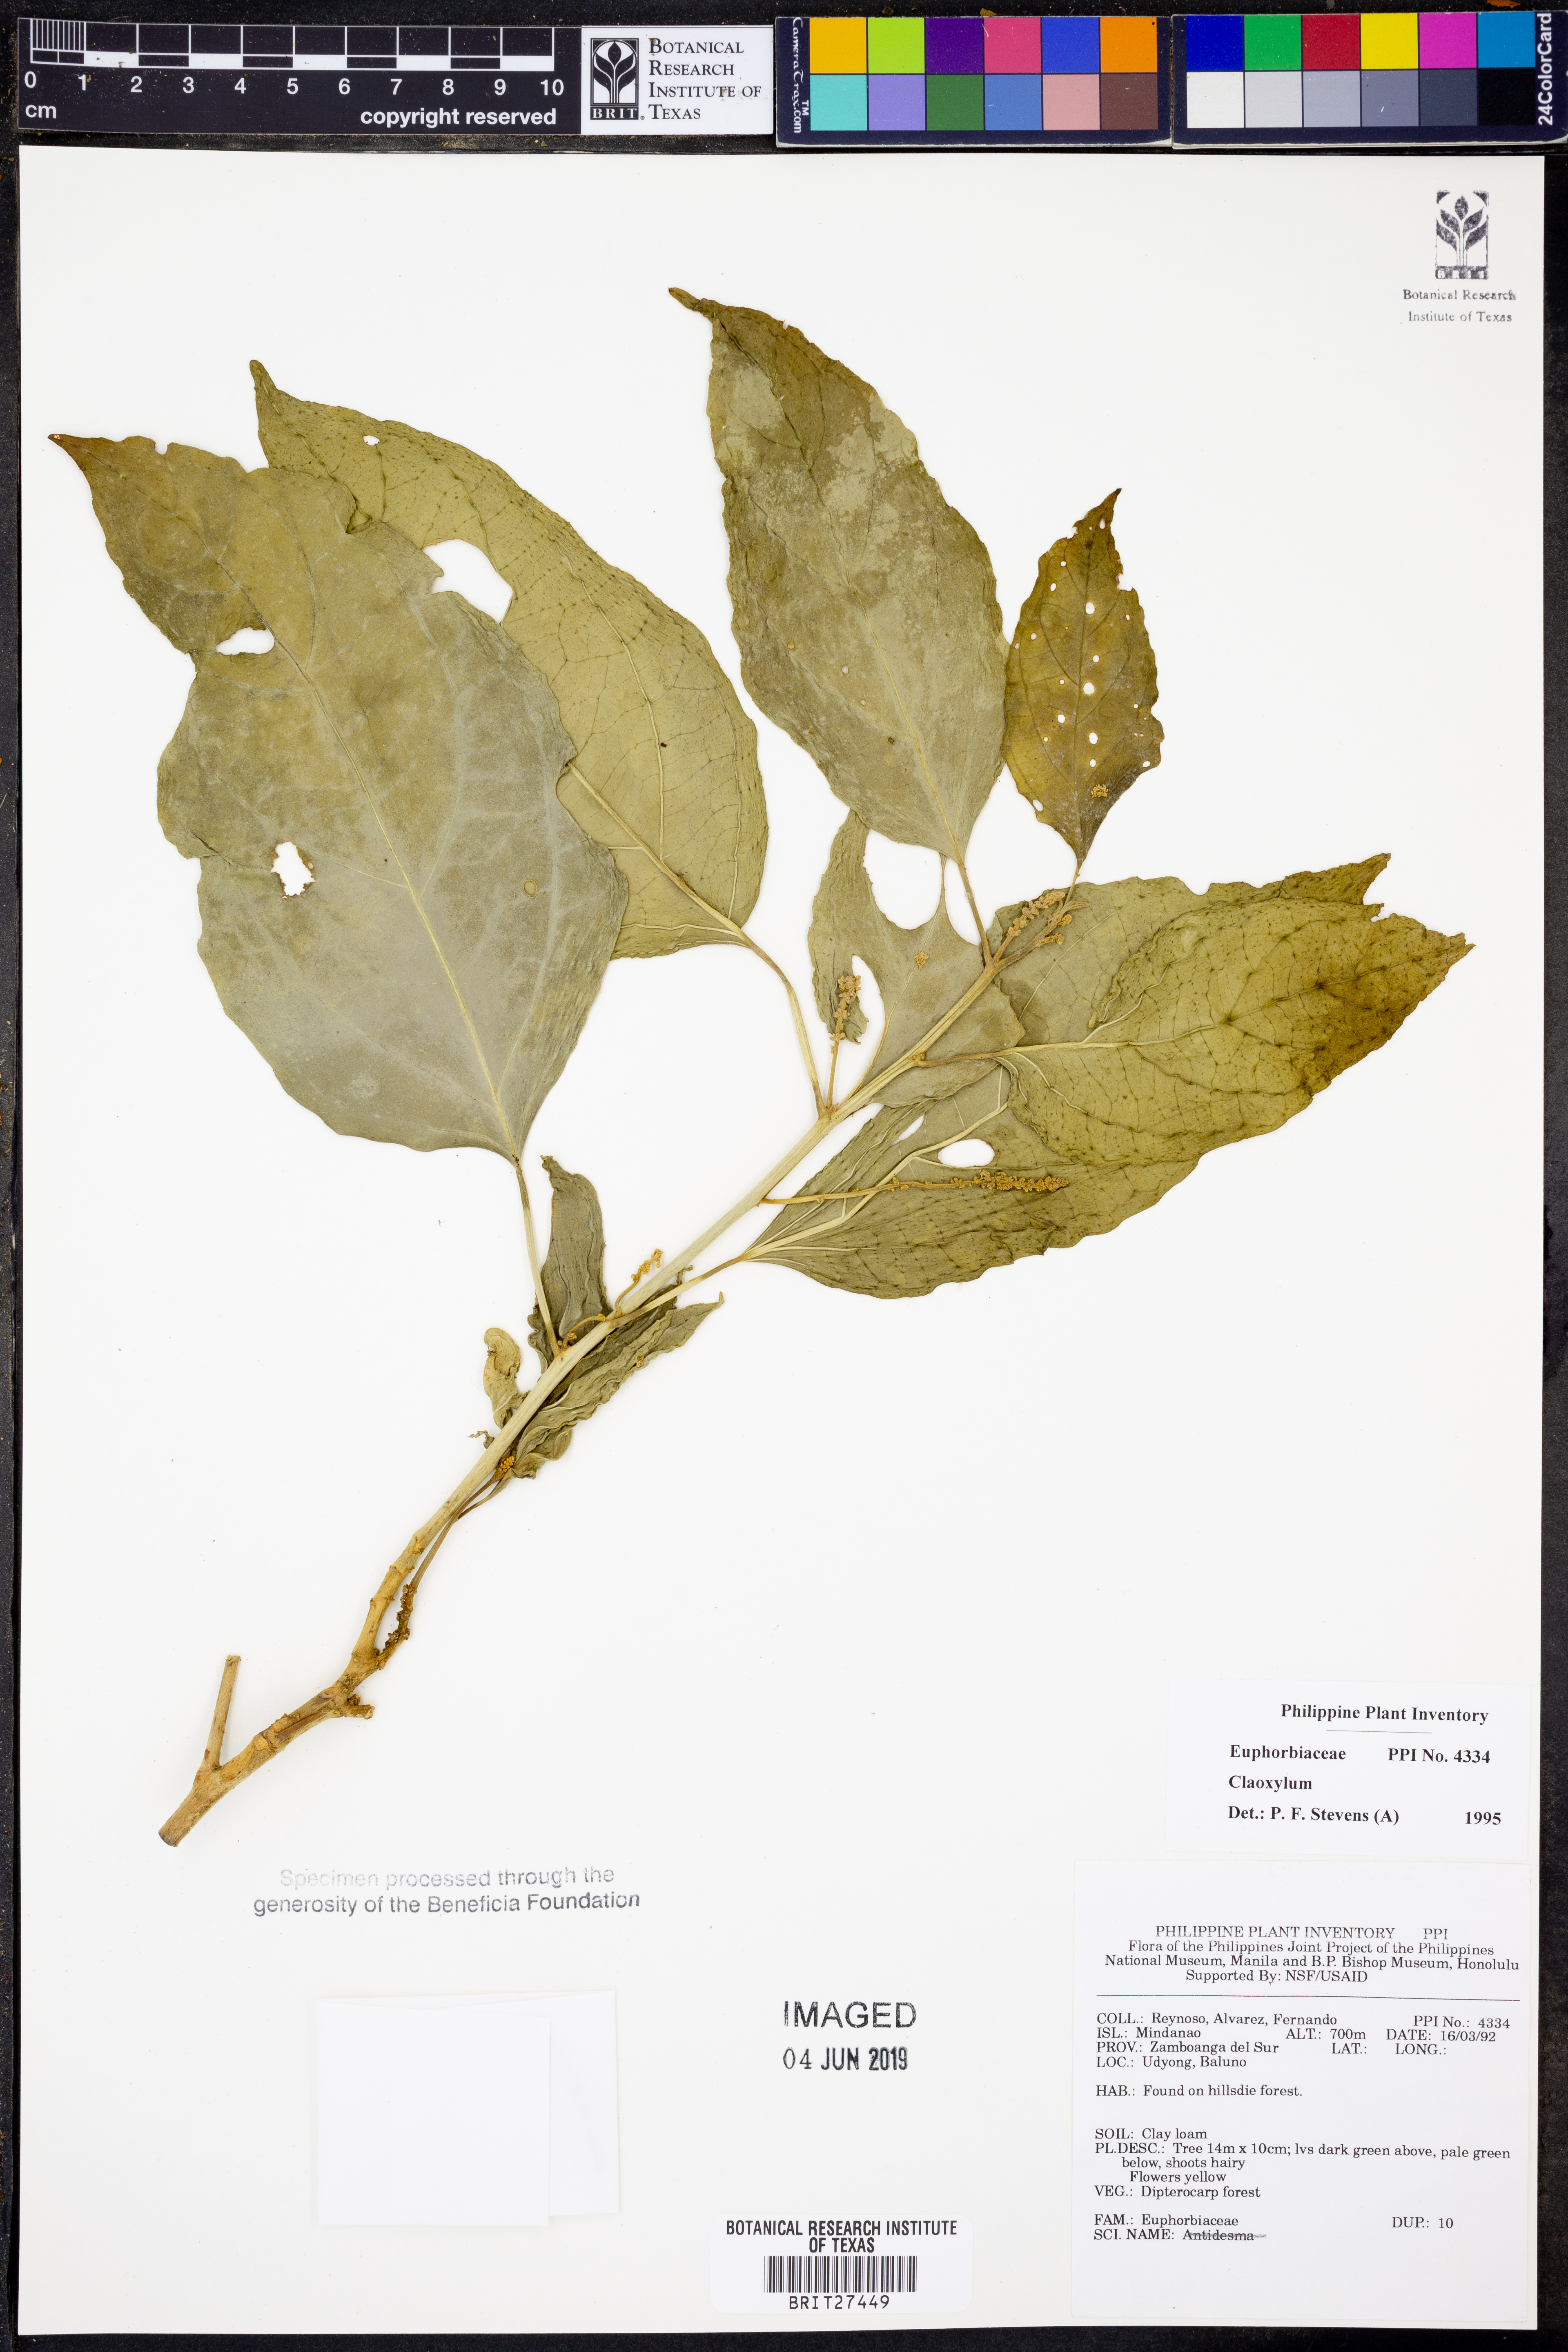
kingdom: Plantae
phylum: Tracheophyta
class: Magnoliopsida
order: Malpighiales
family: Euphorbiaceae
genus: Claoxylon
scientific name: Claoxylon
